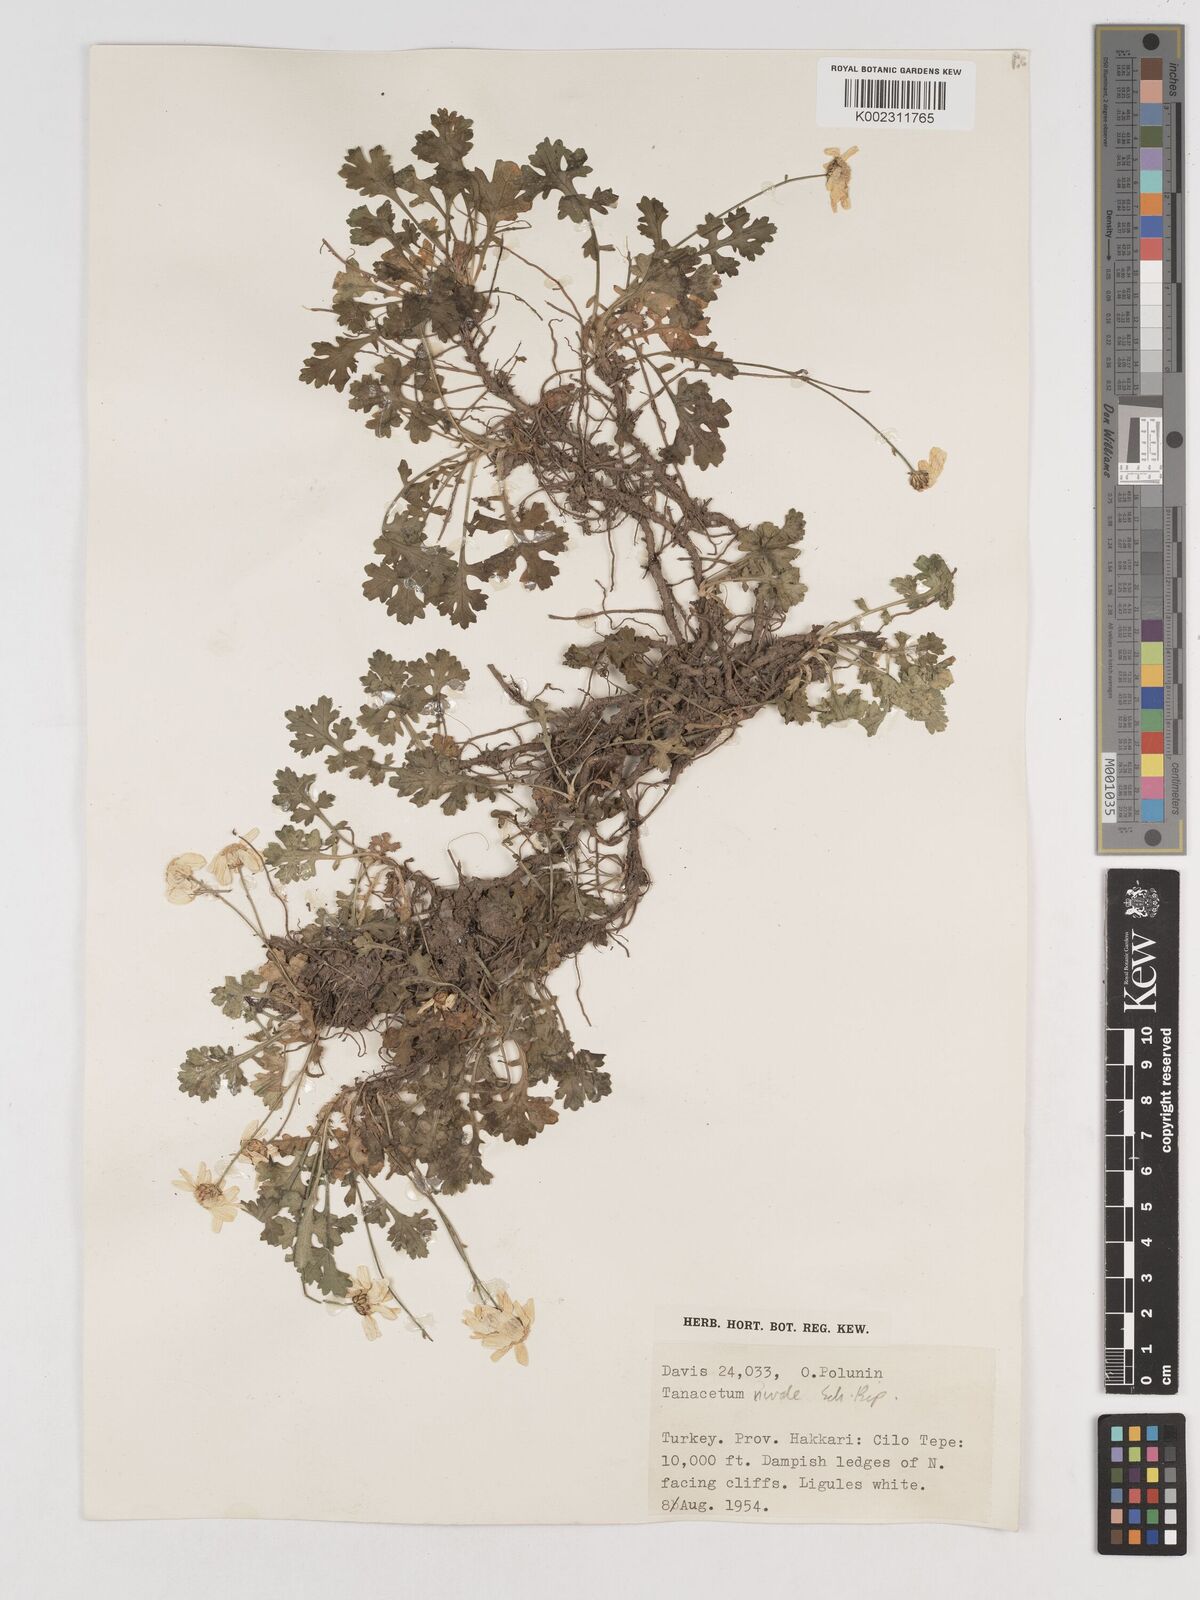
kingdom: Plantae
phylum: Tracheophyta
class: Magnoliopsida
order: Asterales
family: Asteraceae
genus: Tanacetum
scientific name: Tanacetum nivale
